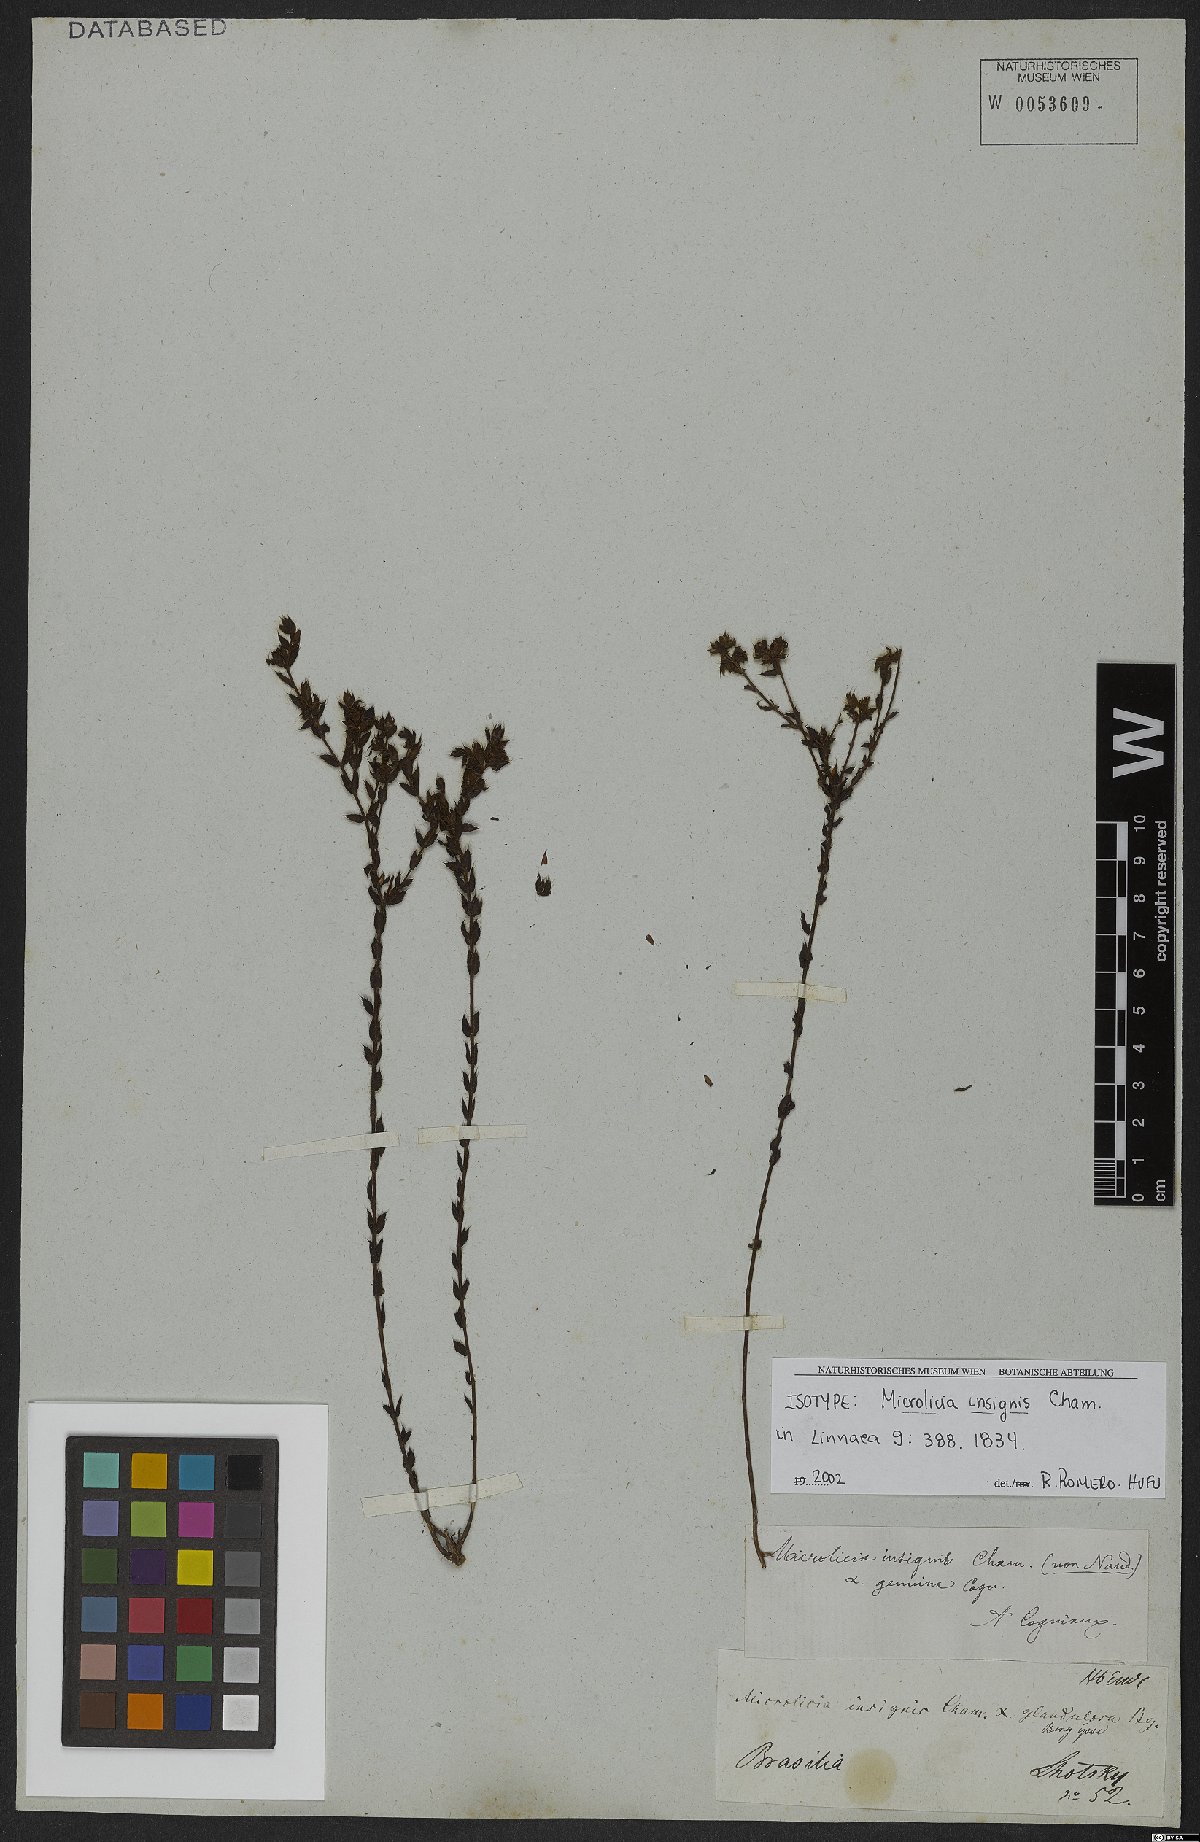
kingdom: Plantae
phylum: Tracheophyta
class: Magnoliopsida
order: Myrtales
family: Melastomataceae
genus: Microlicia
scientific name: Microlicia insignis
